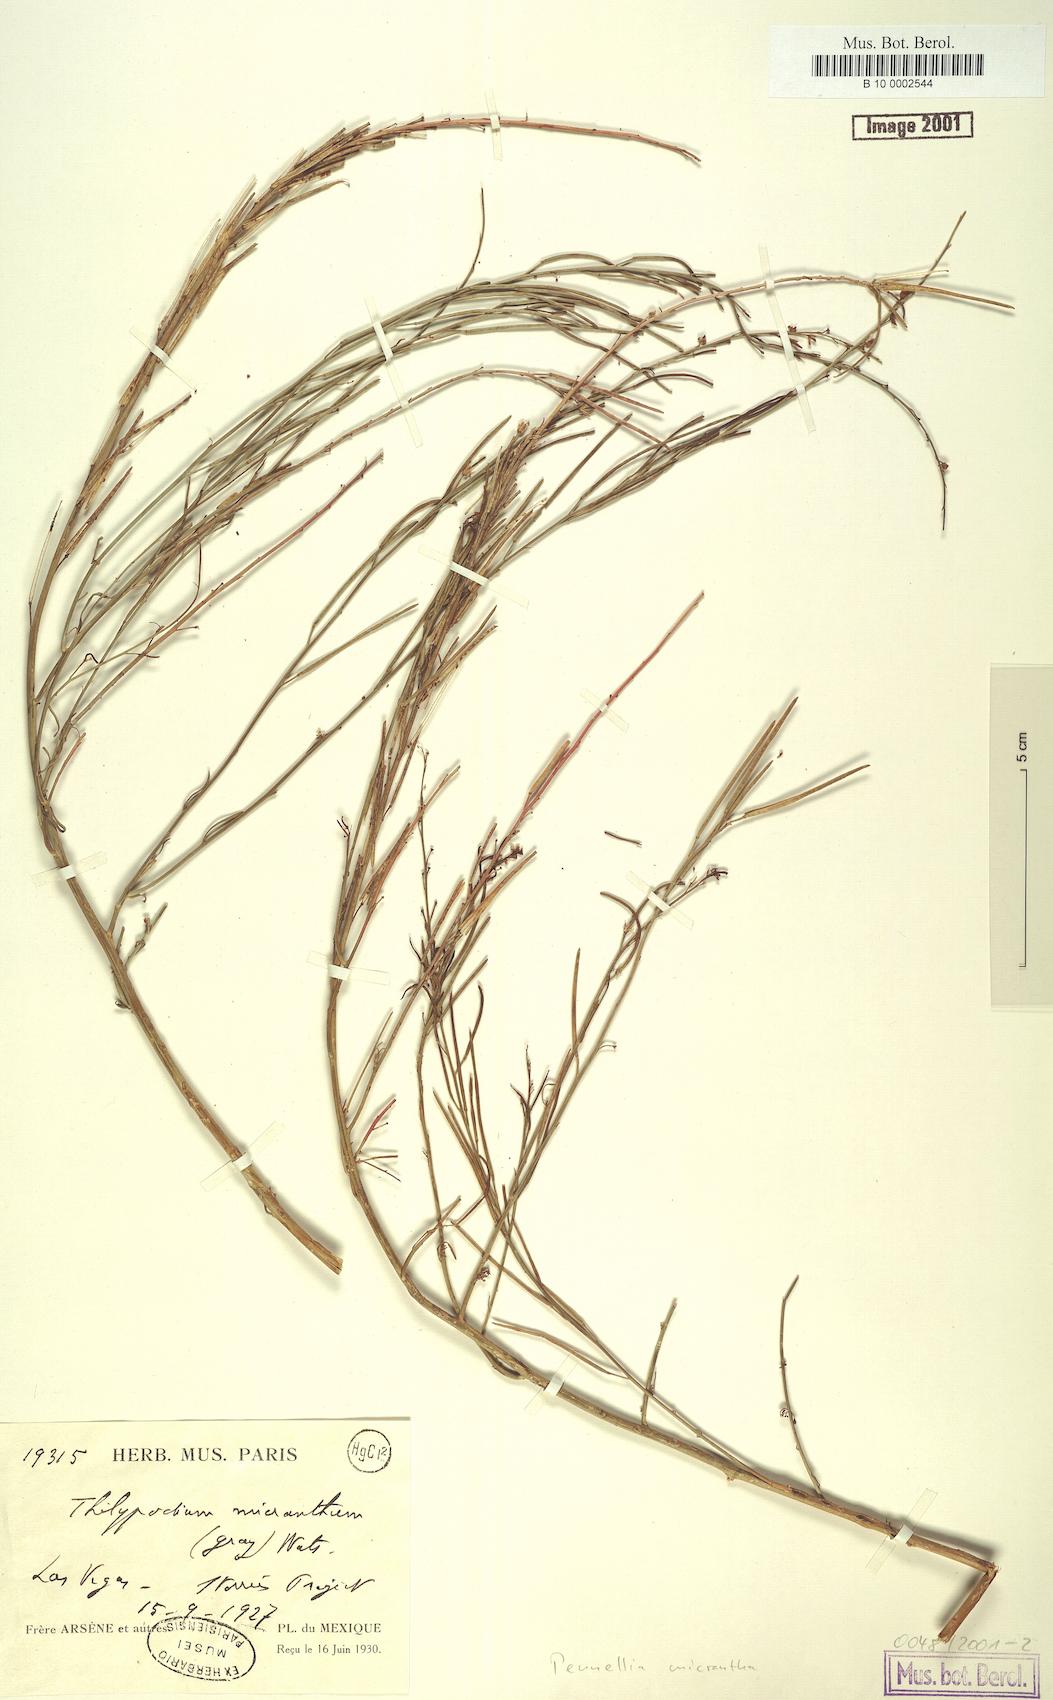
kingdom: Plantae
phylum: Tracheophyta
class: Magnoliopsida
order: Brassicales
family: Brassicaceae
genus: Pennellia
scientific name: Pennellia micrantha
